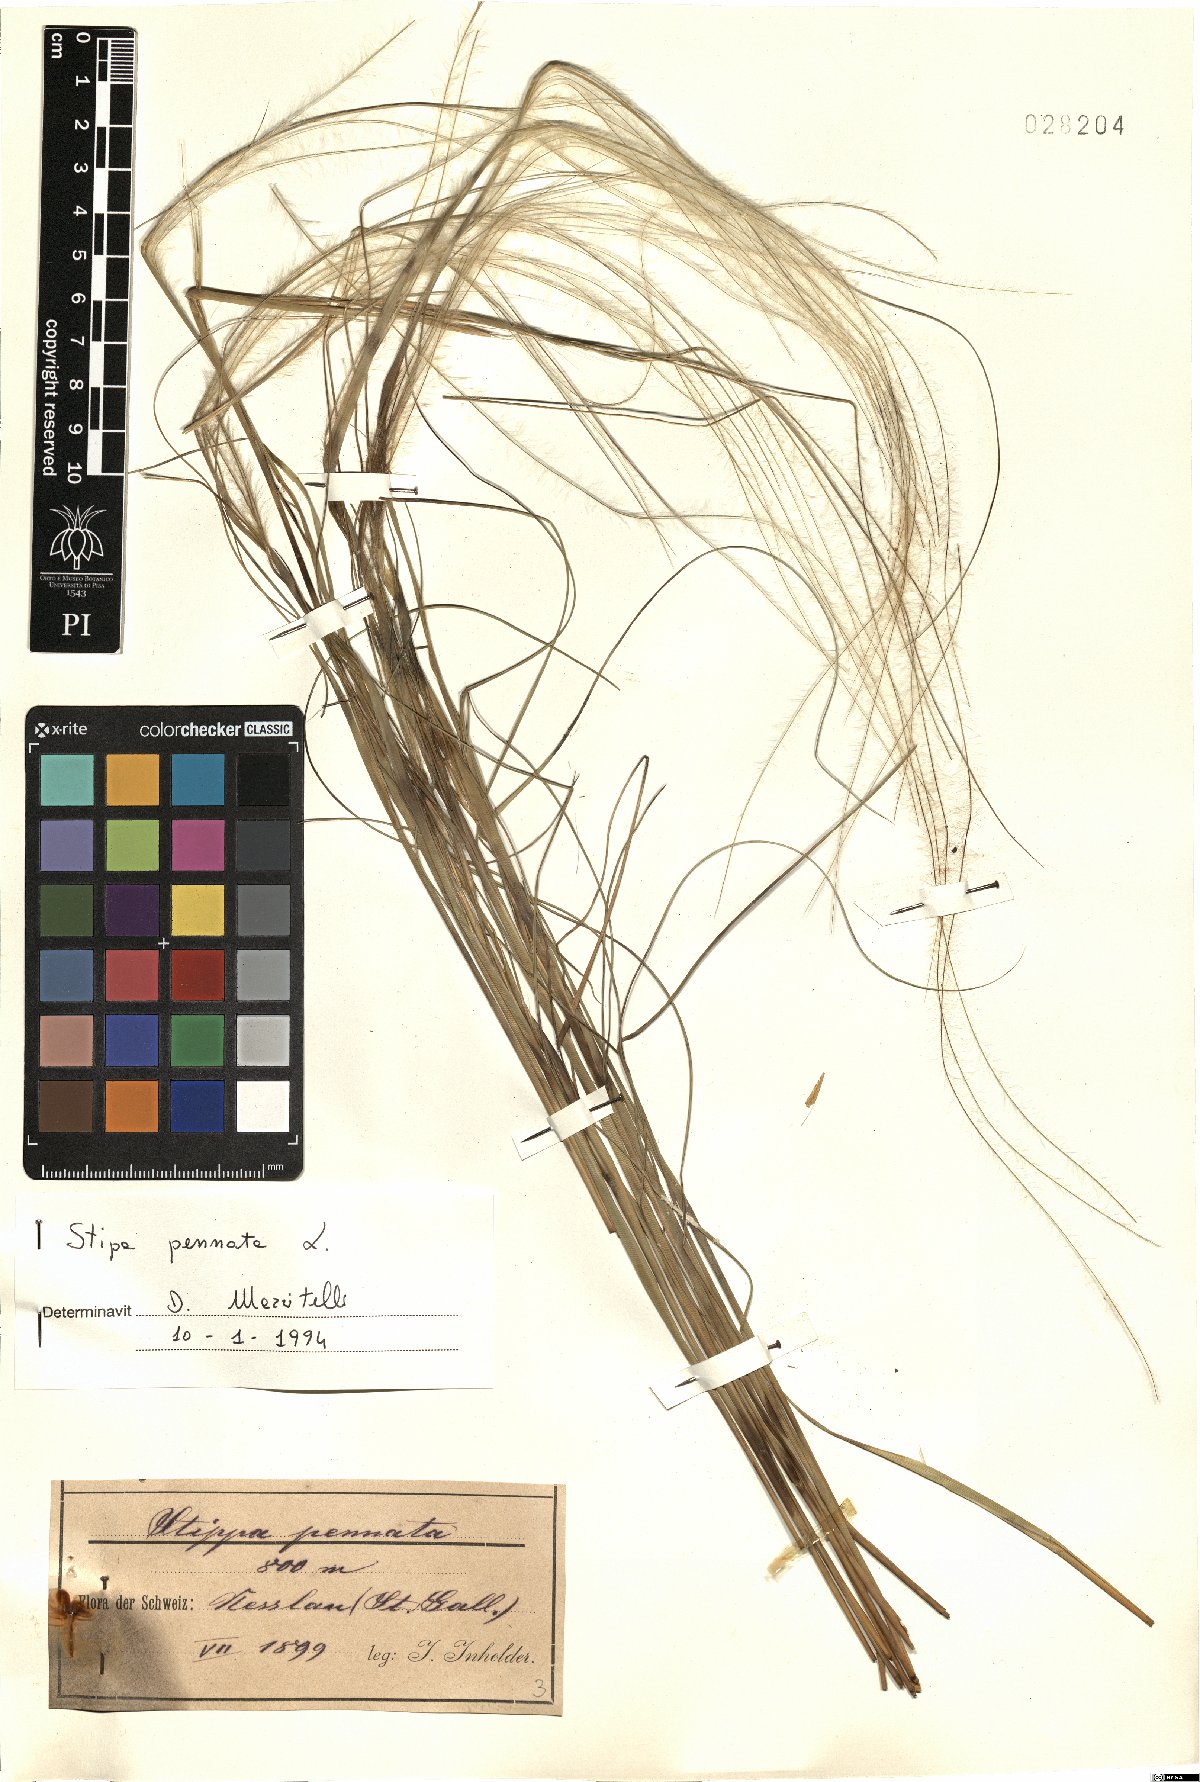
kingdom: Plantae
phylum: Tracheophyta
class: Liliopsida
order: Poales
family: Poaceae
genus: Stipa
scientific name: Stipa pennata
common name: European feather grass
